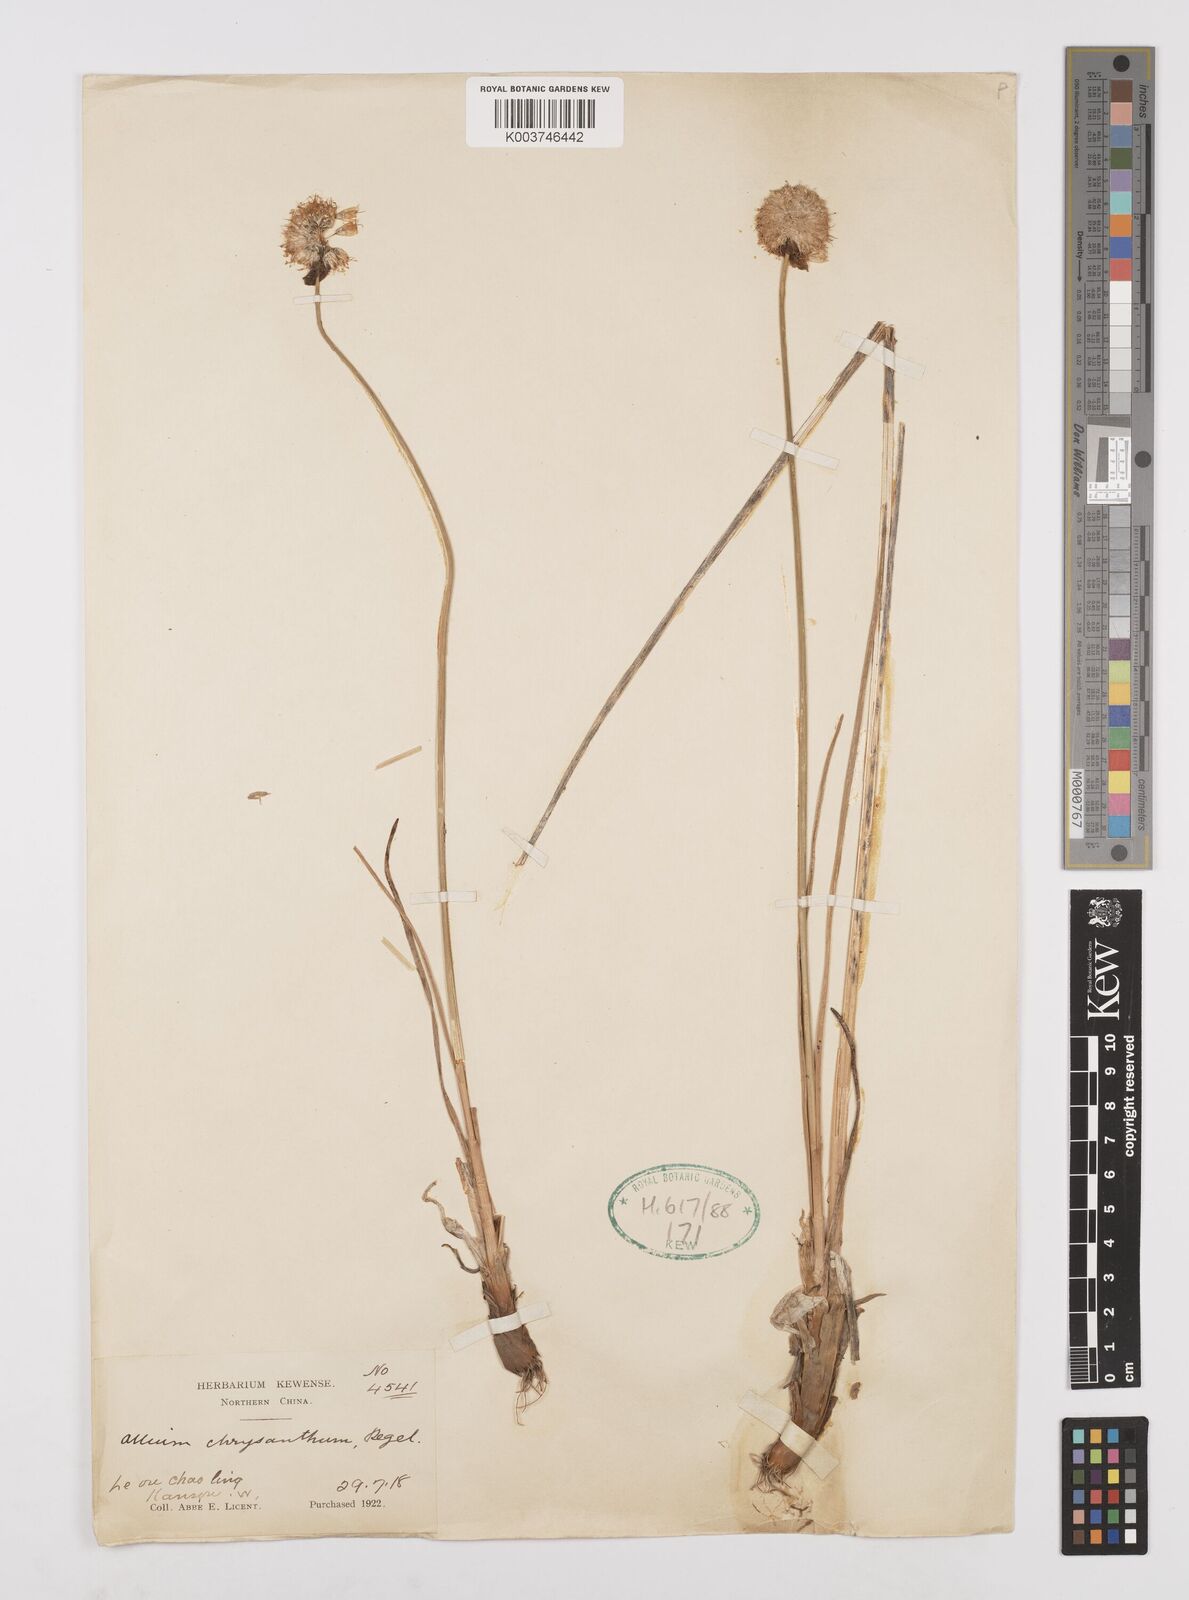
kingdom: Plantae
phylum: Tracheophyta
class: Liliopsida
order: Asparagales
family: Amaryllidaceae
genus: Allium
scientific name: Allium chrysanthum
